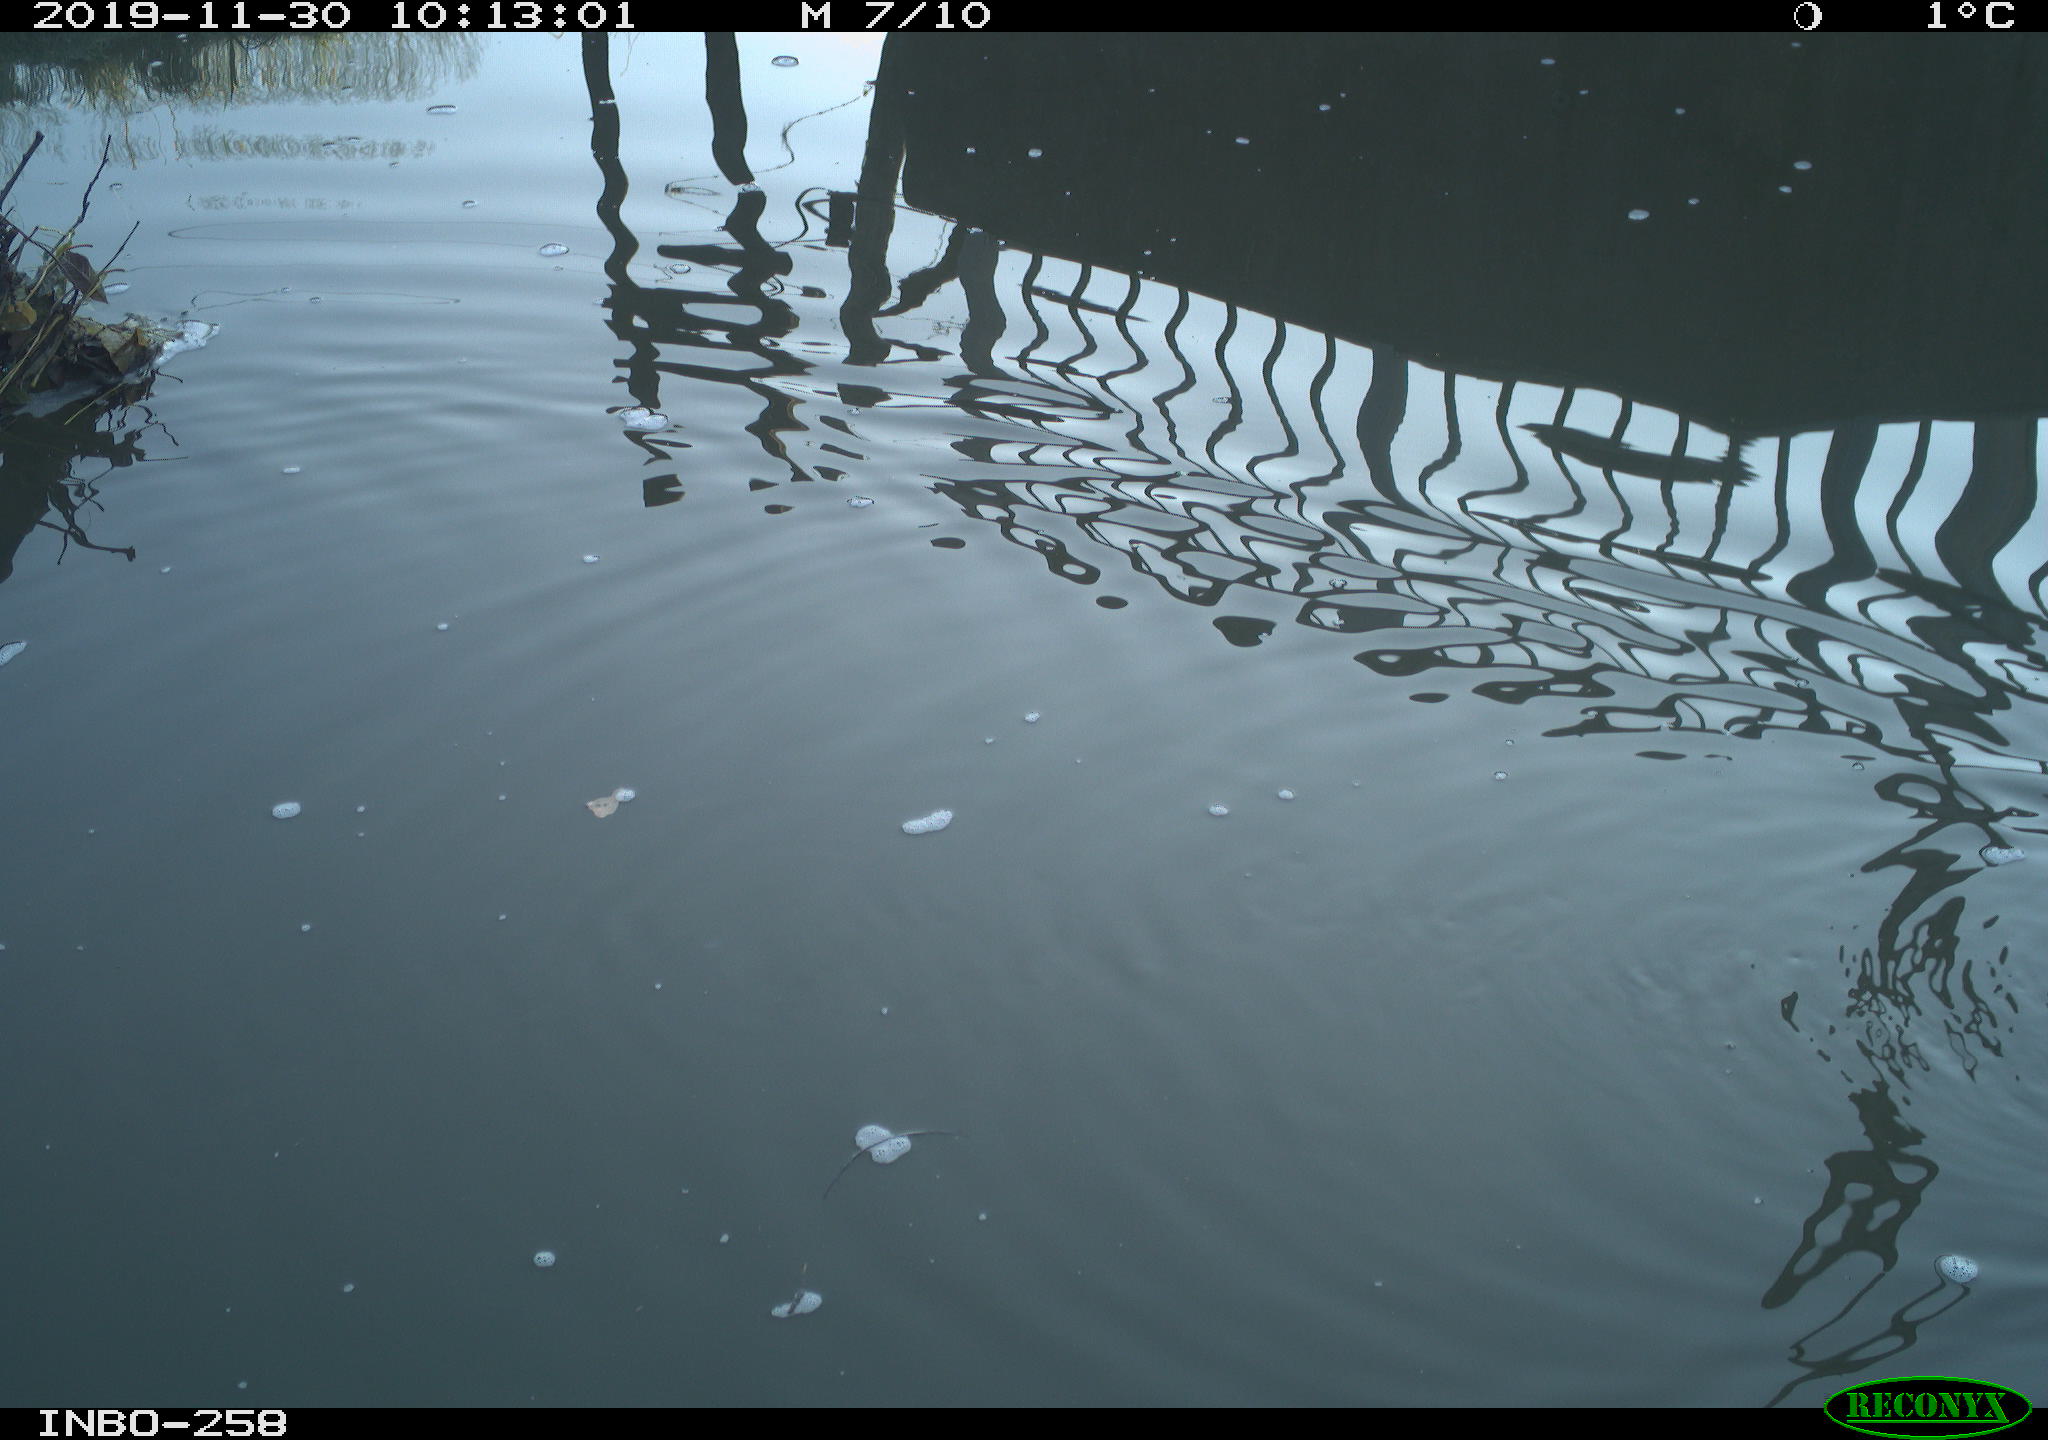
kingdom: Animalia
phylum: Chordata
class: Aves
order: Gruiformes
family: Rallidae
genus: Gallinula
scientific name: Gallinula chloropus
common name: Common moorhen
